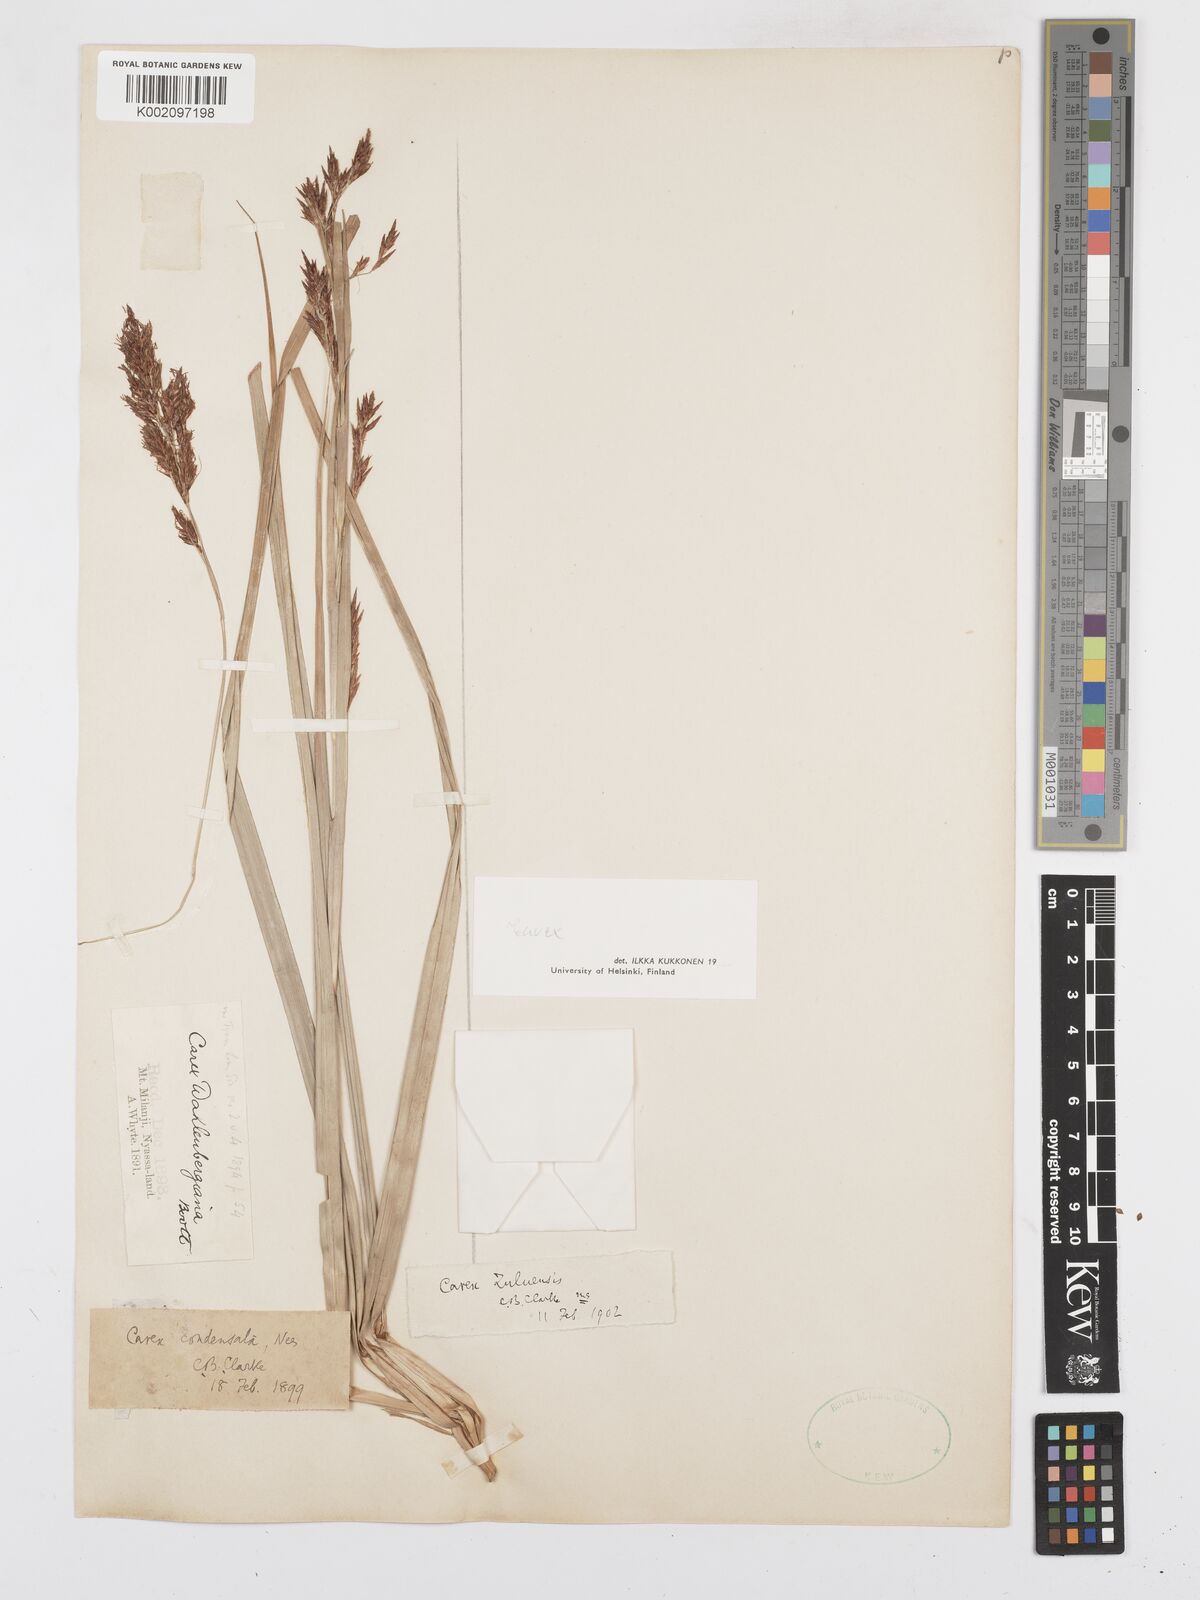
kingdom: Plantae
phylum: Tracheophyta
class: Liliopsida
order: Poales
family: Cyperaceae
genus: Carex
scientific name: Carex
